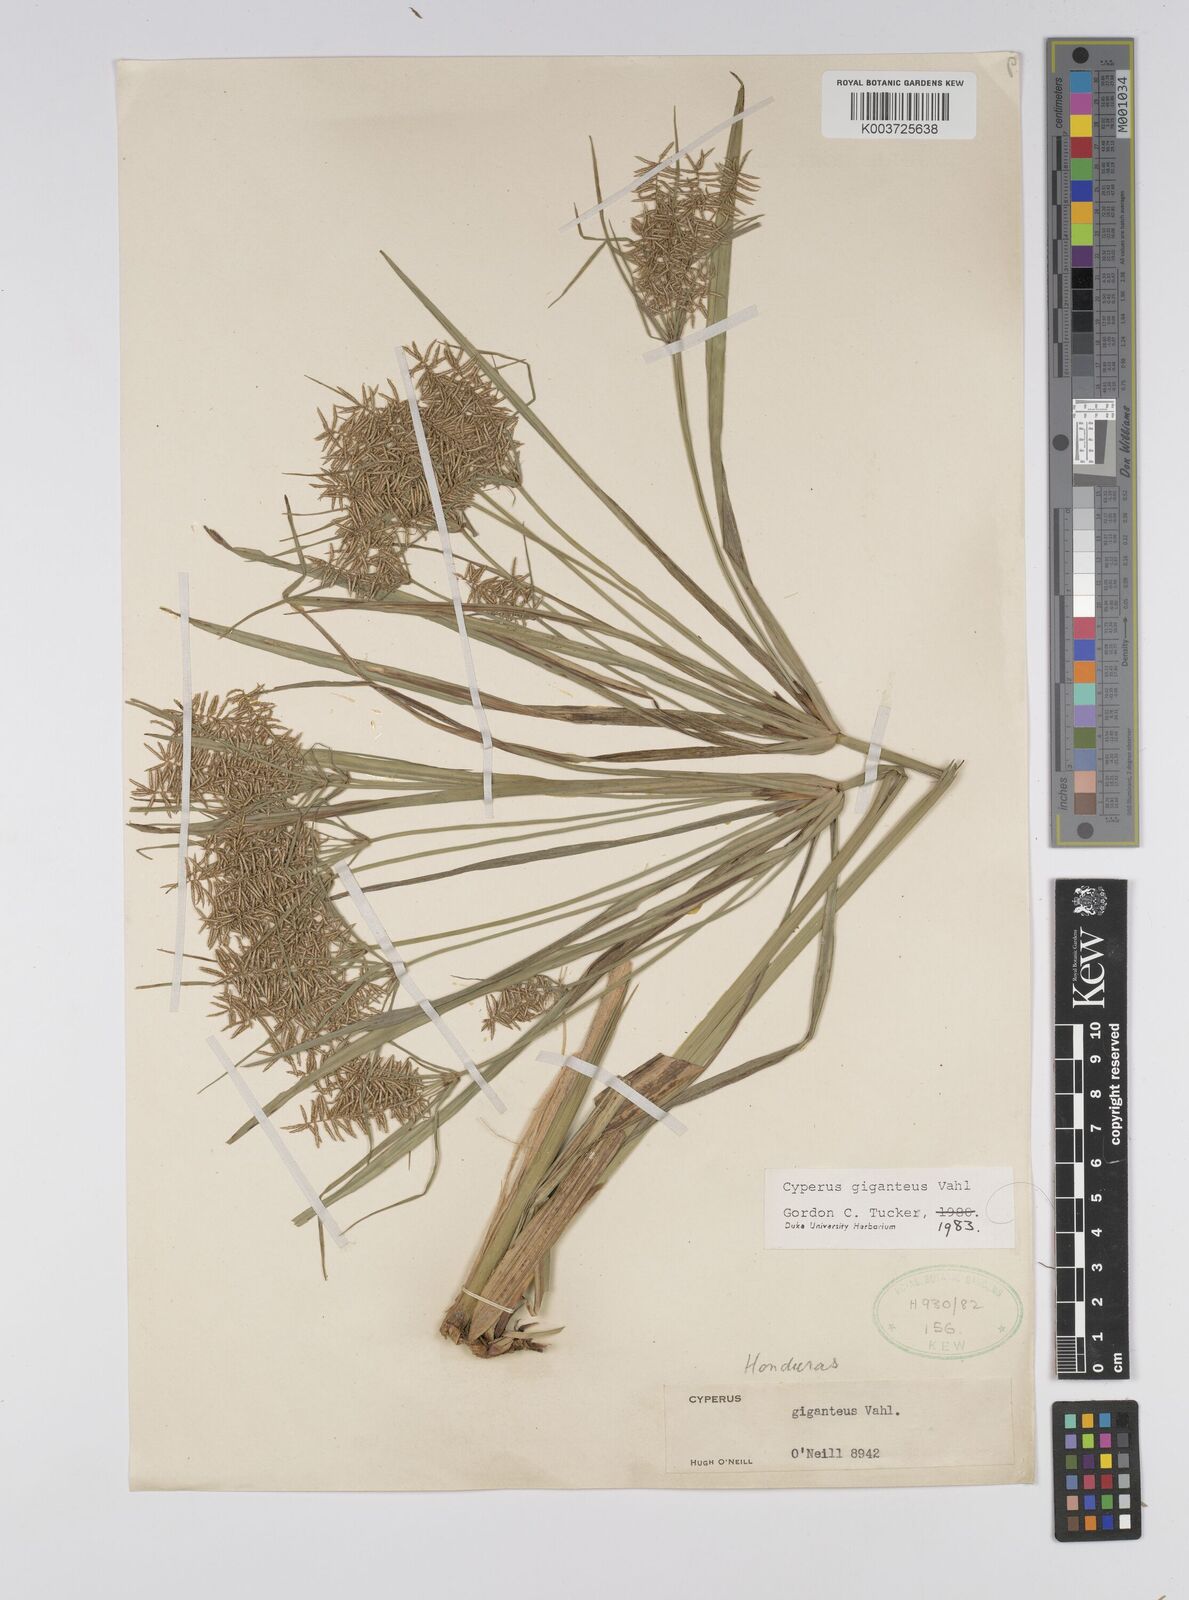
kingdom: Plantae
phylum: Tracheophyta
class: Liliopsida
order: Poales
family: Cyperaceae
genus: Cyperus
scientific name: Cyperus giganteus
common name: Giant flat sedge
